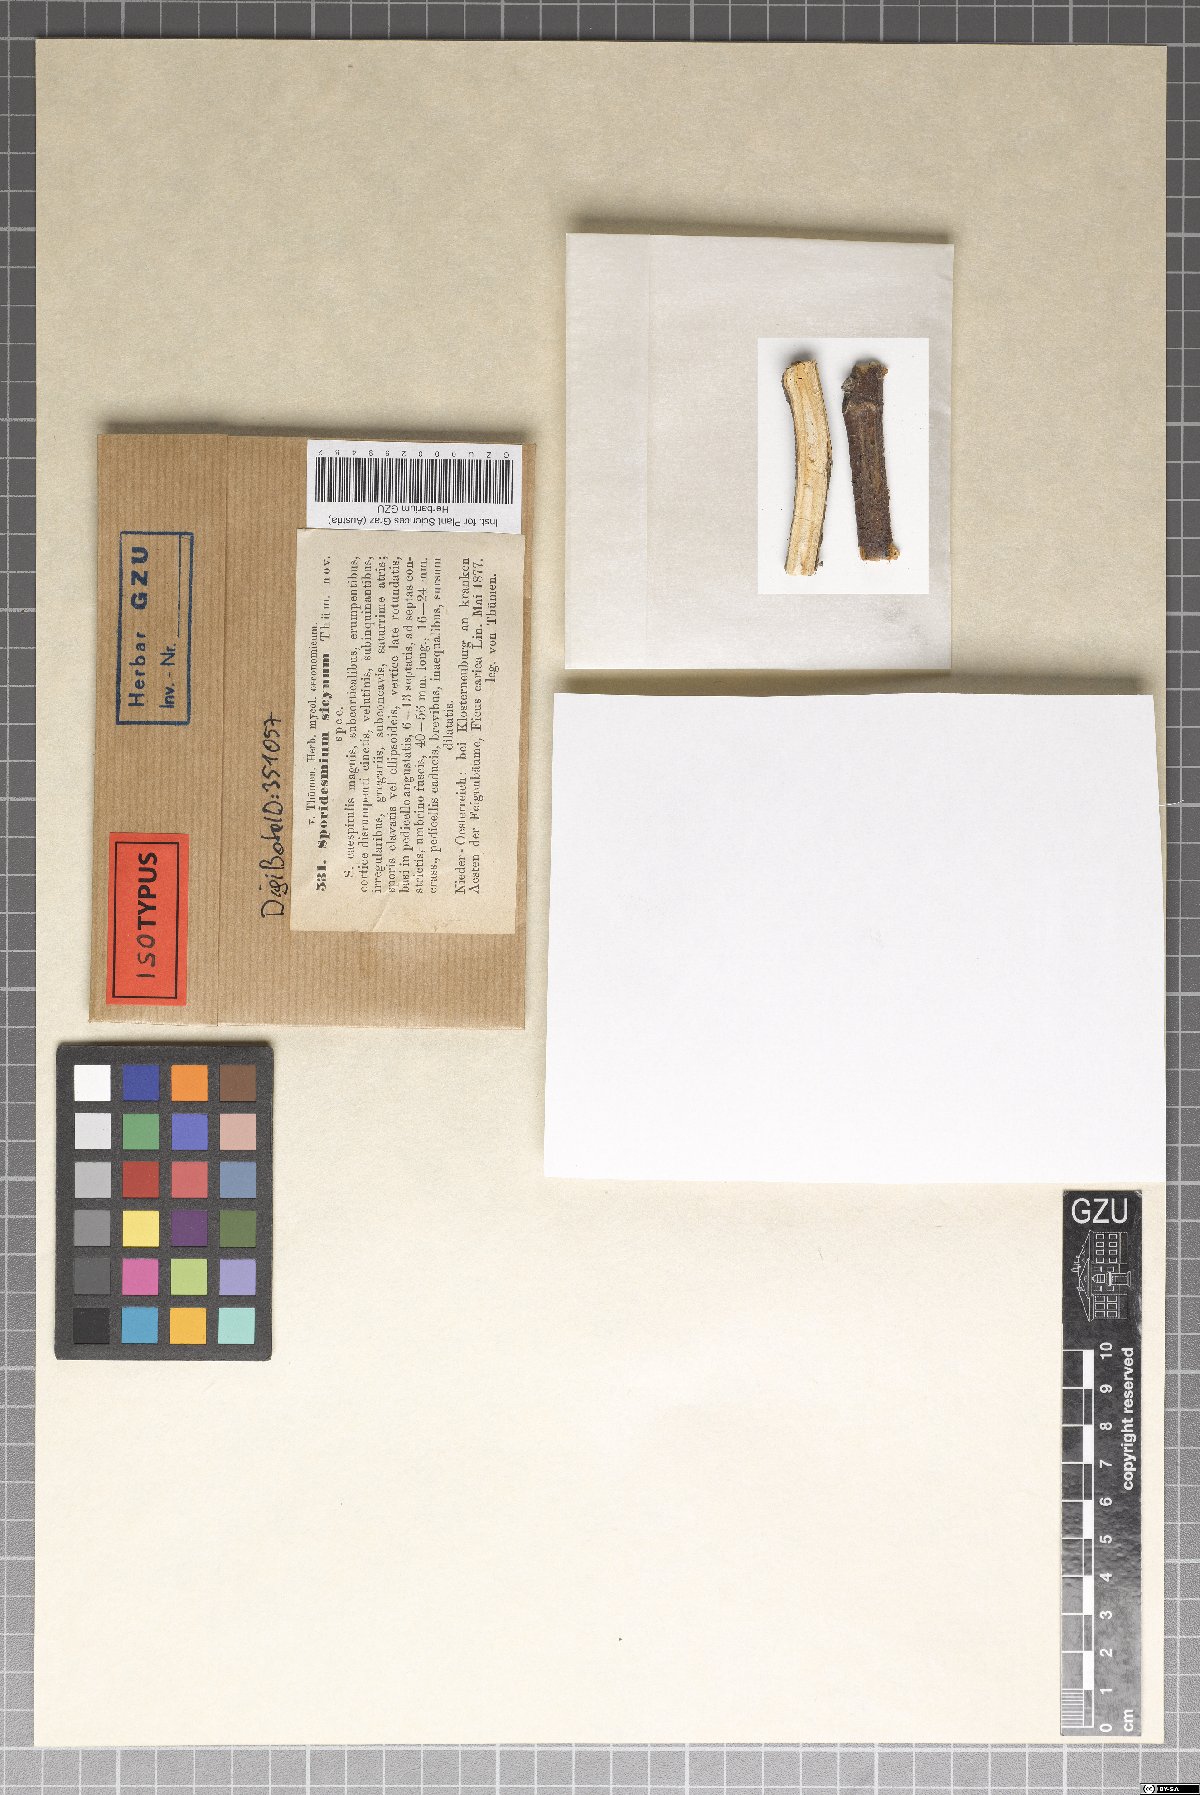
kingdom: Fungi
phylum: Ascomycota
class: Dothideomycetes
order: Mycosphaerellales
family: Mycosphaerellaceae
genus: Stigmina
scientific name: Stigmina sycina
